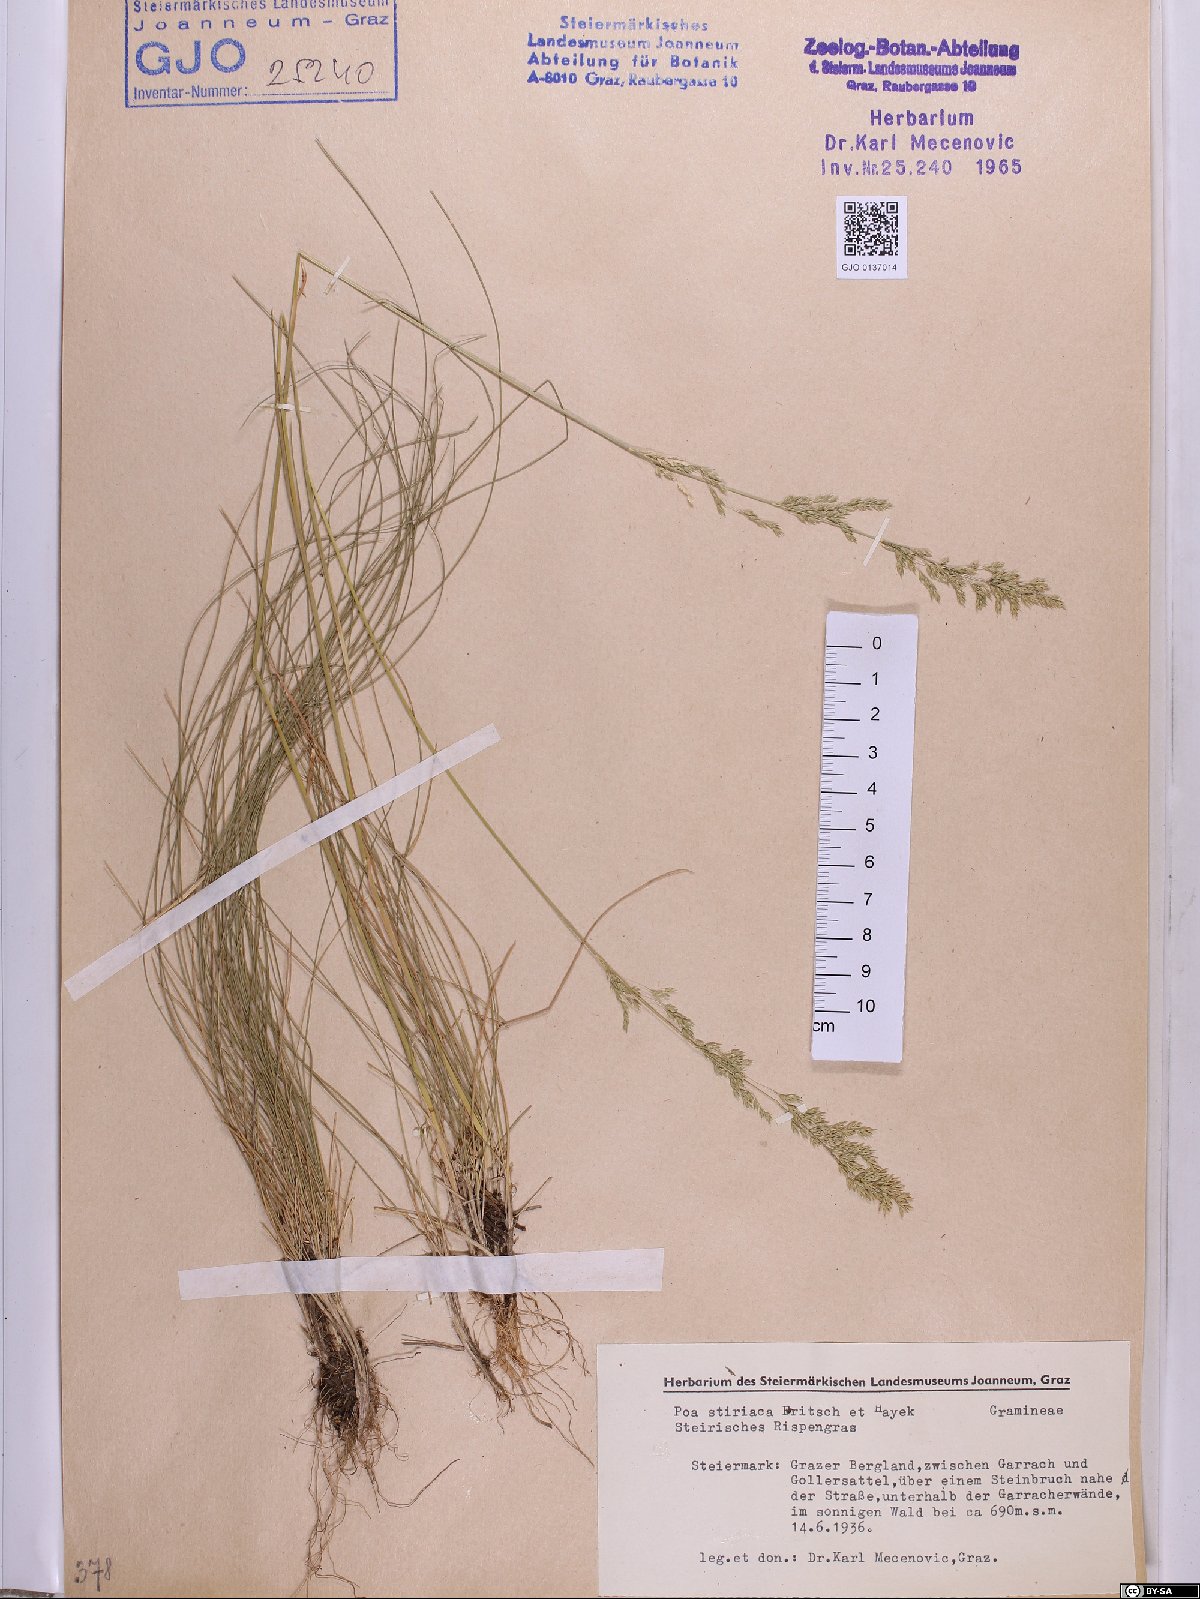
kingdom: Plantae
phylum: Tracheophyta
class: Liliopsida
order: Poales
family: Poaceae
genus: Poa
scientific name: Poa stiriaca
